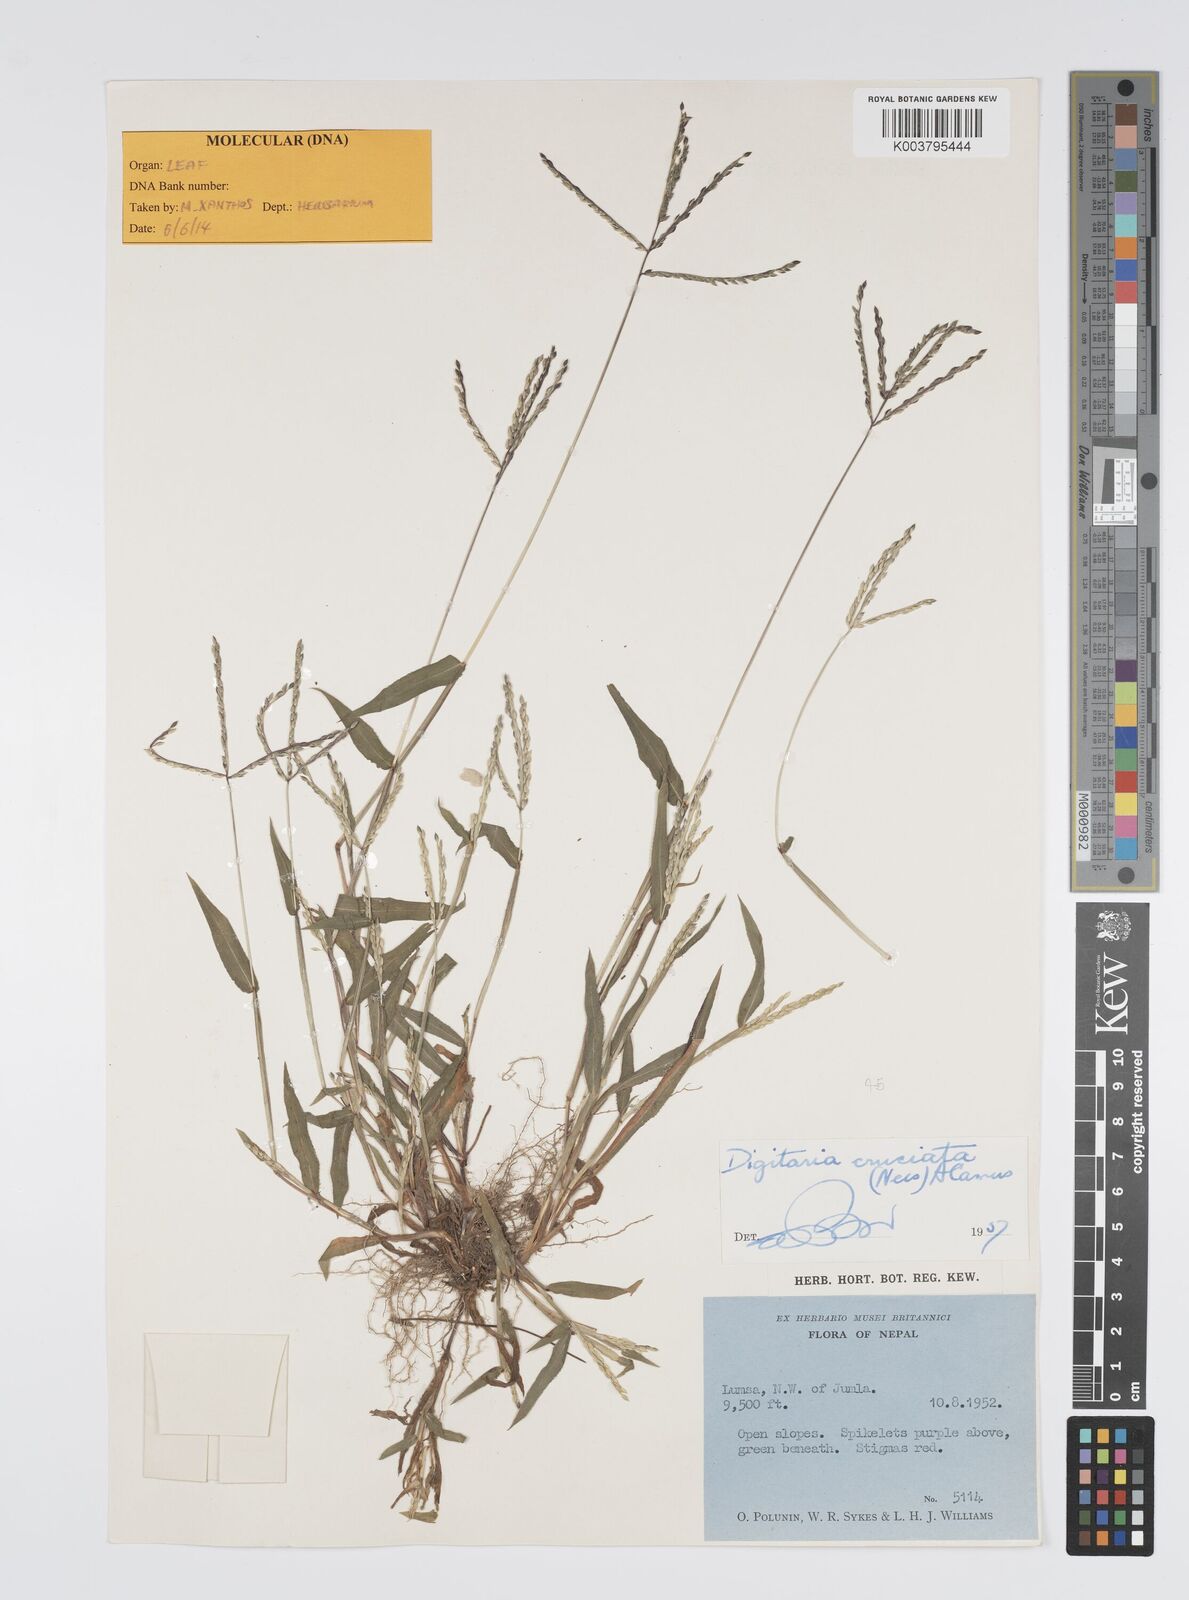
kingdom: Plantae
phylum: Tracheophyta
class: Liliopsida
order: Poales
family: Poaceae
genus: Digitaria
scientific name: Digitaria cruciata
